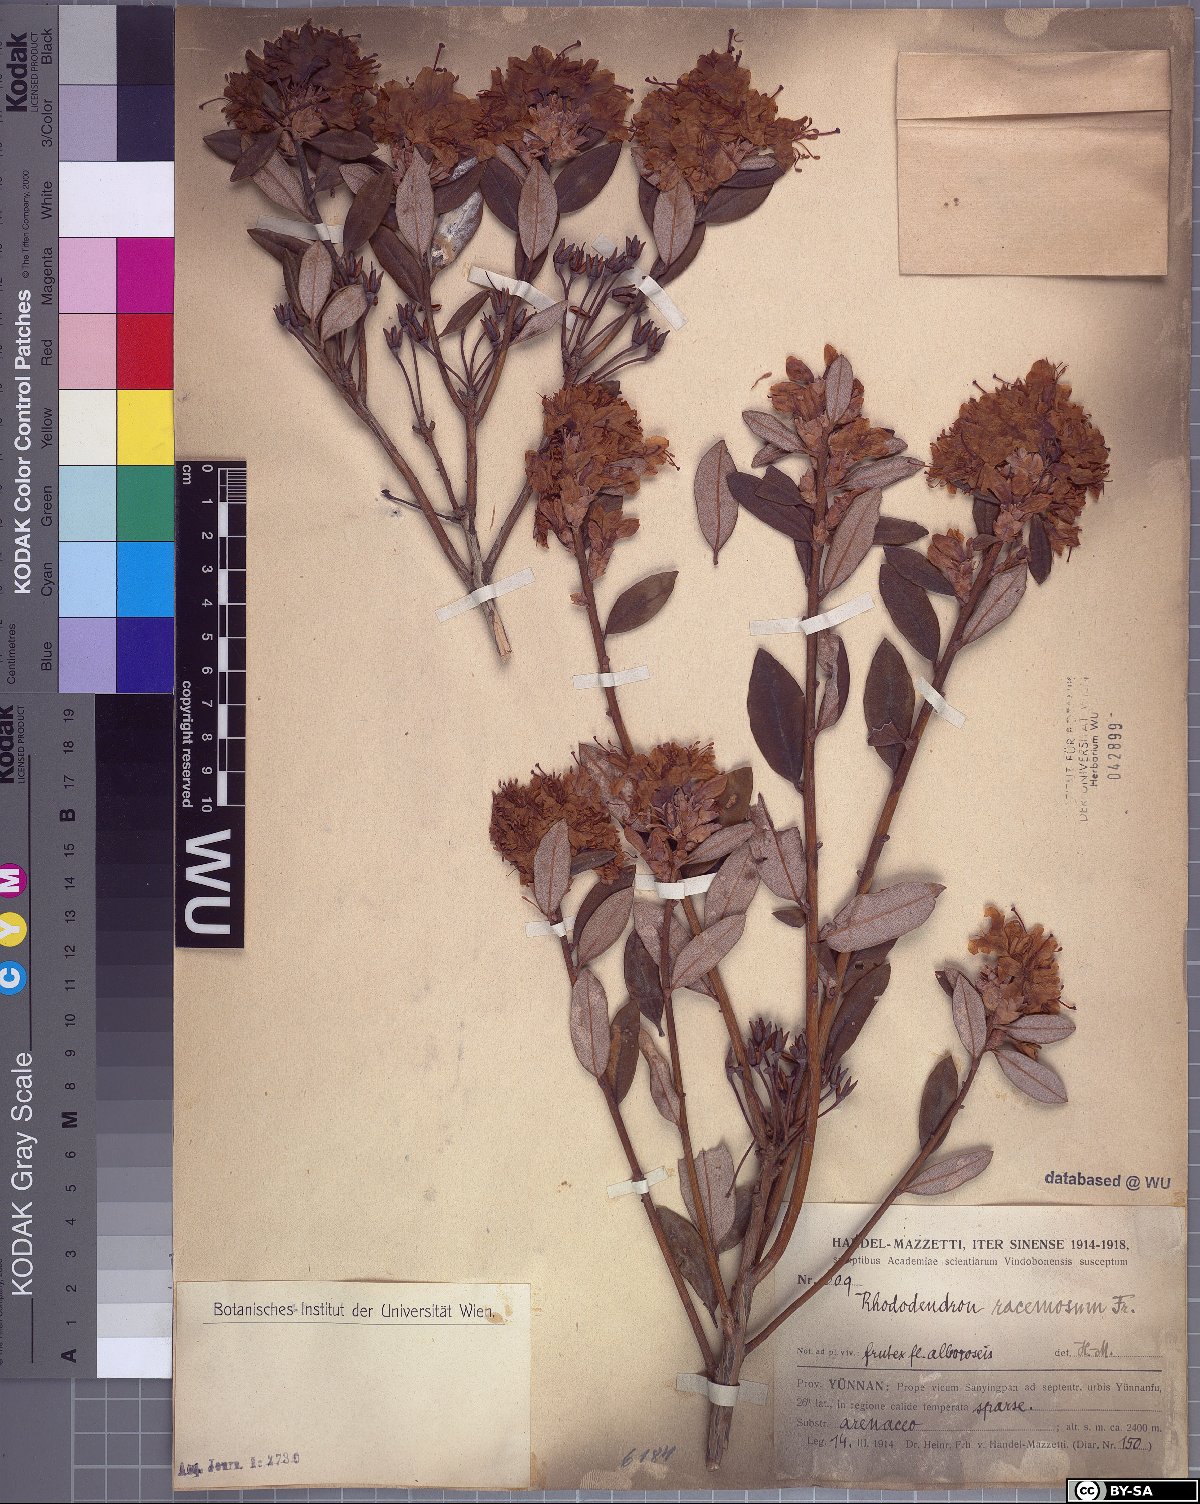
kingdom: Plantae
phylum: Tracheophyta
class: Magnoliopsida
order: Ericales
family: Ericaceae
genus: Rhododendron
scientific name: Rhododendron racemosum
